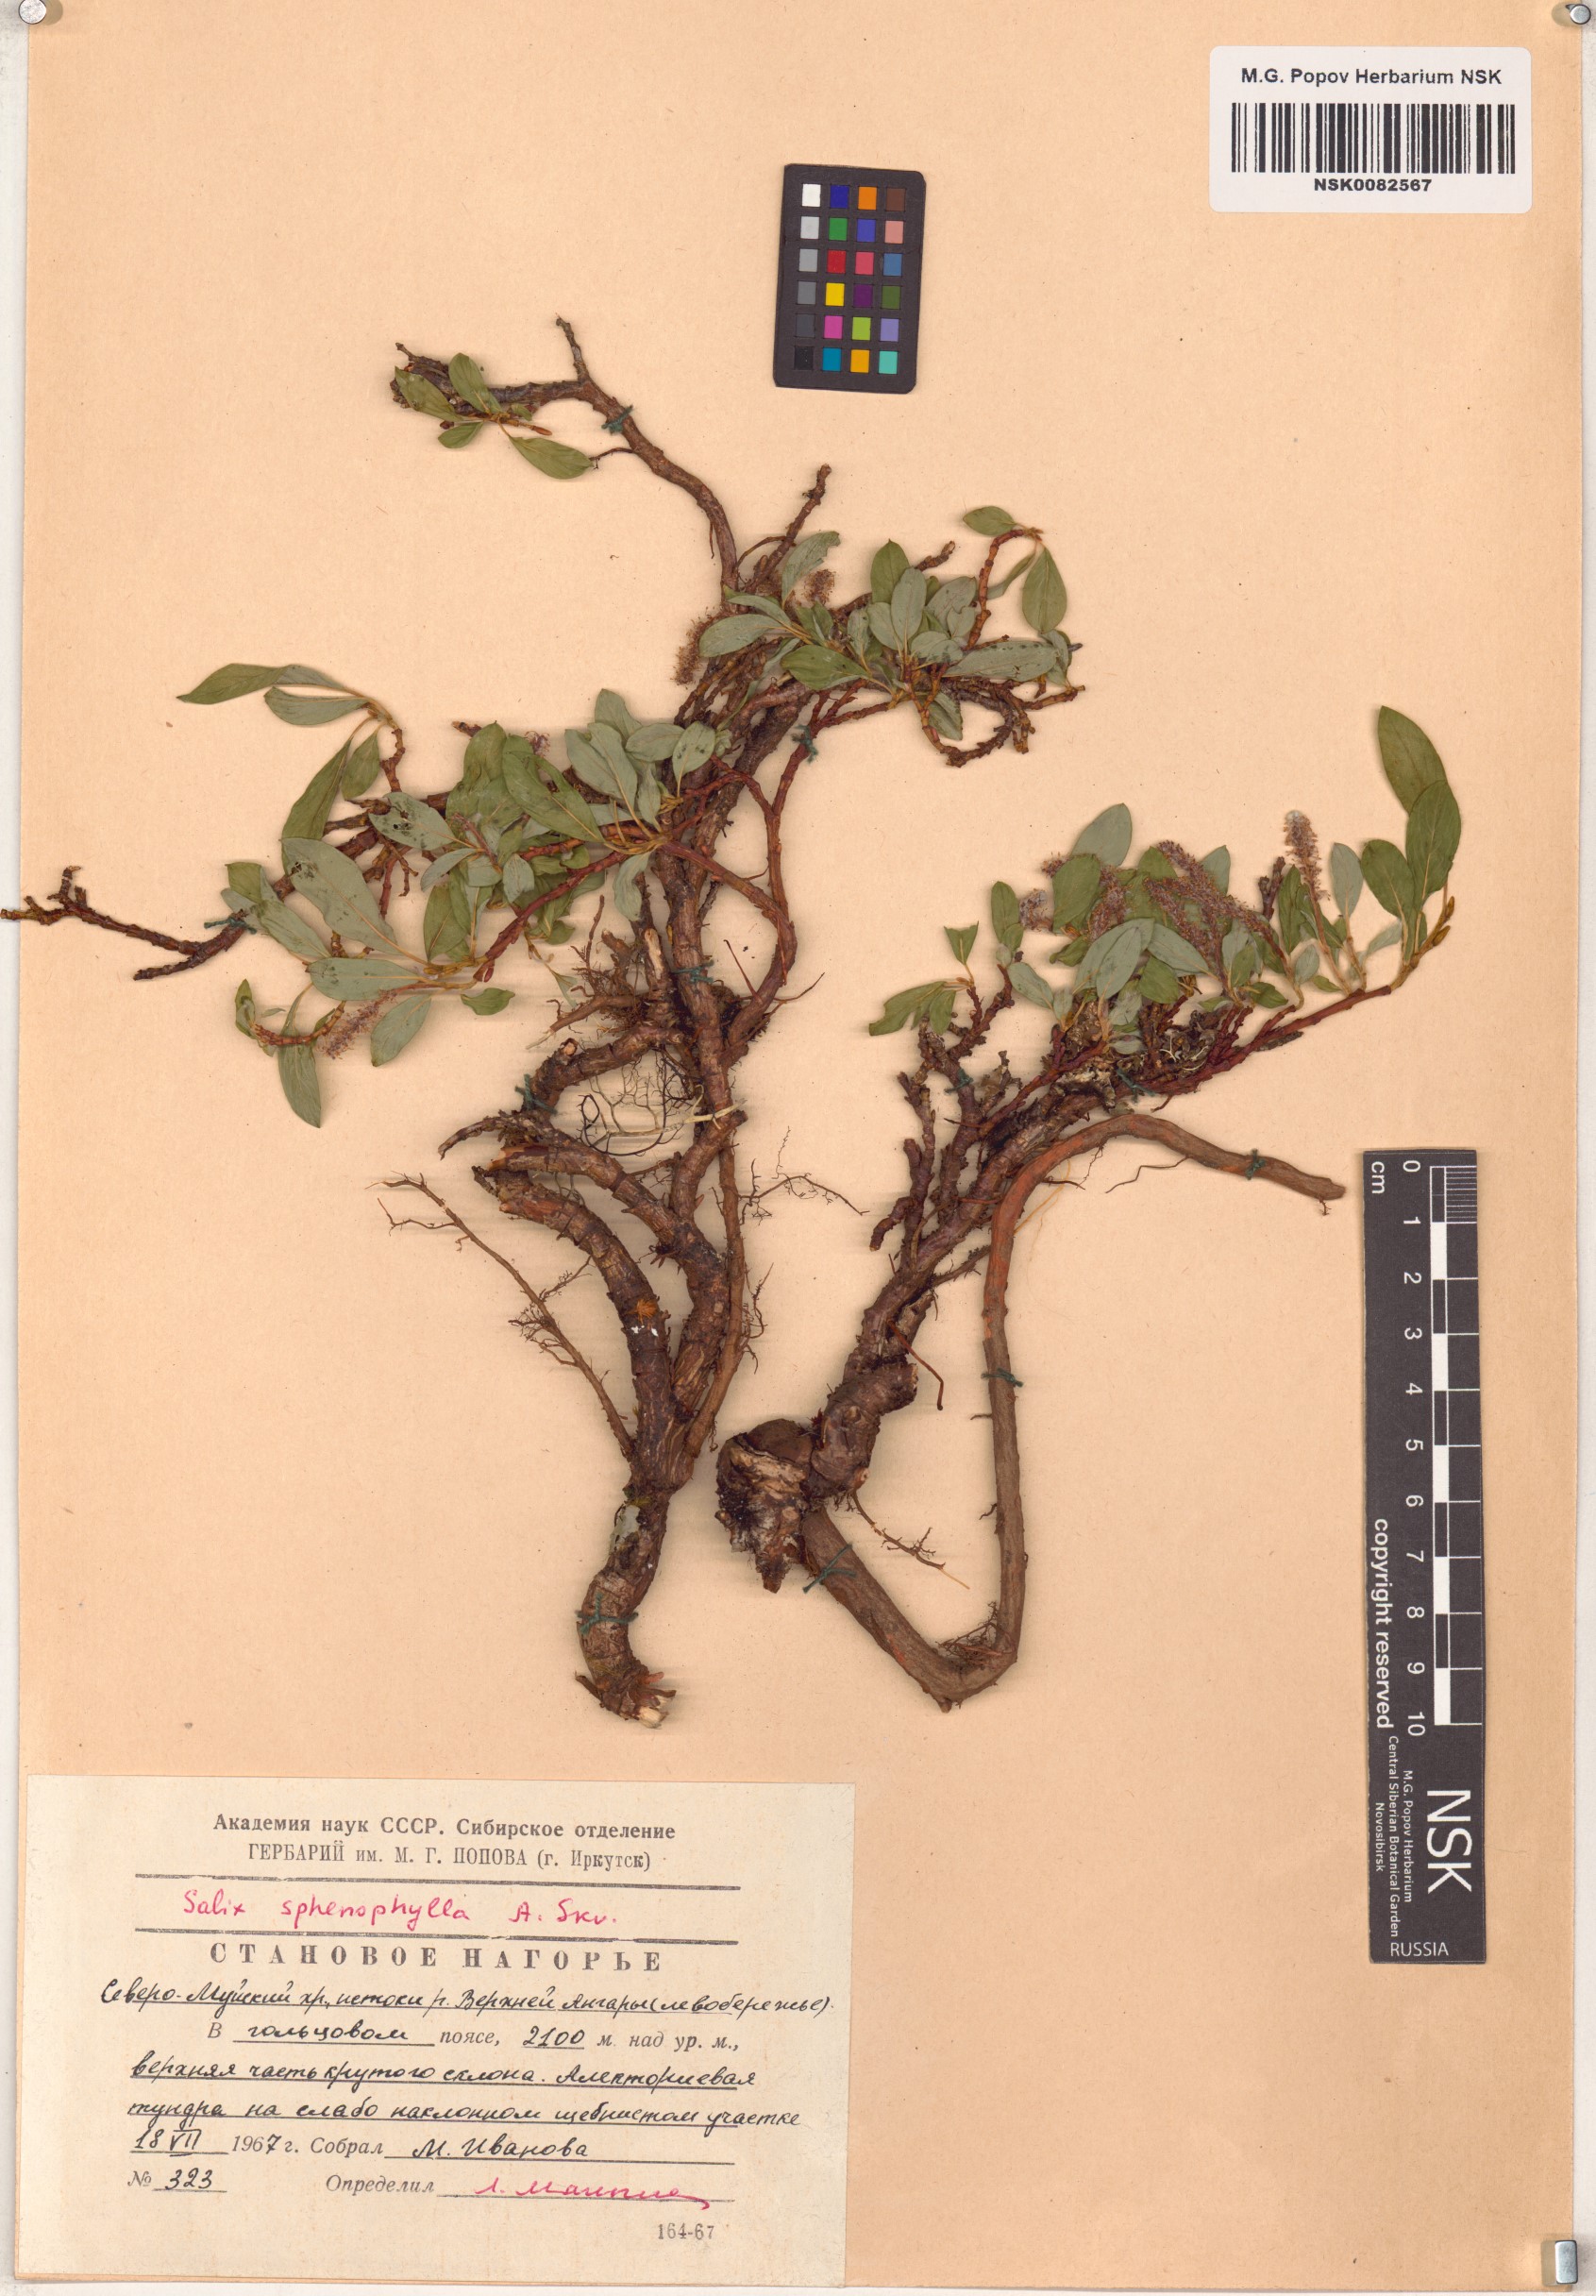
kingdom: Plantae
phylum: Tracheophyta
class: Magnoliopsida
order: Malpighiales
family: Salicaceae
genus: Salix
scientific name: Salix sphenophylla
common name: Wedge-leaved willow
